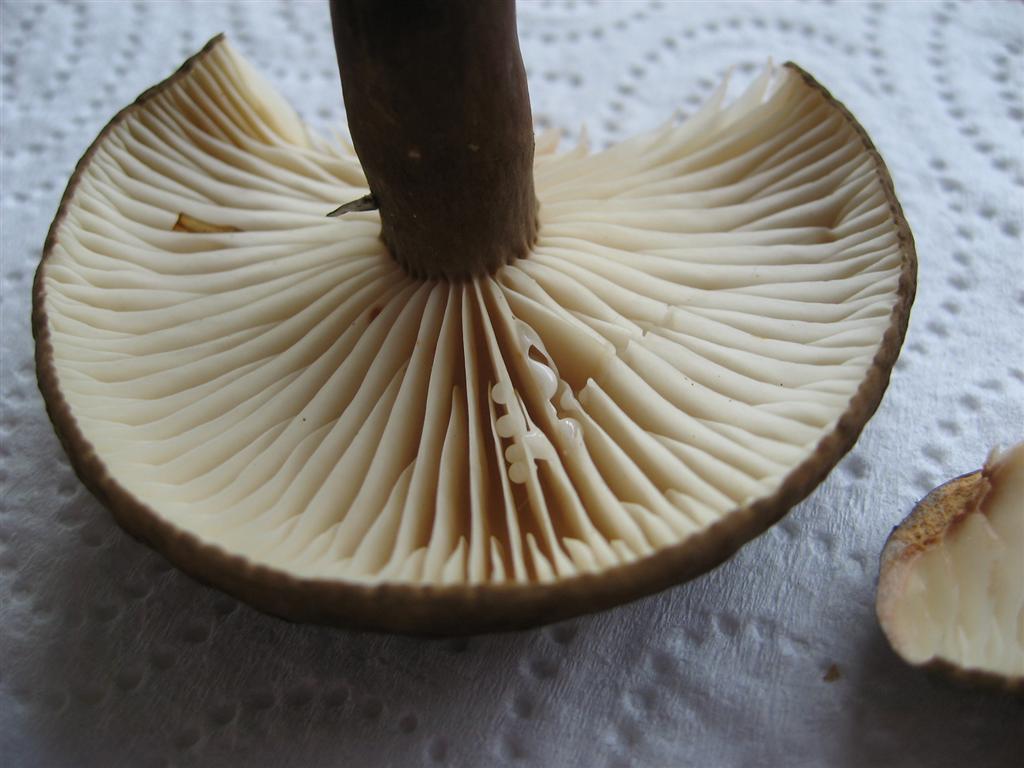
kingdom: Fungi
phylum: Basidiomycota
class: Agaricomycetes
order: Russulales
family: Russulaceae
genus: Lactarius
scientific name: Lactarius romagnesii
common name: fjernbladet mælkehat
